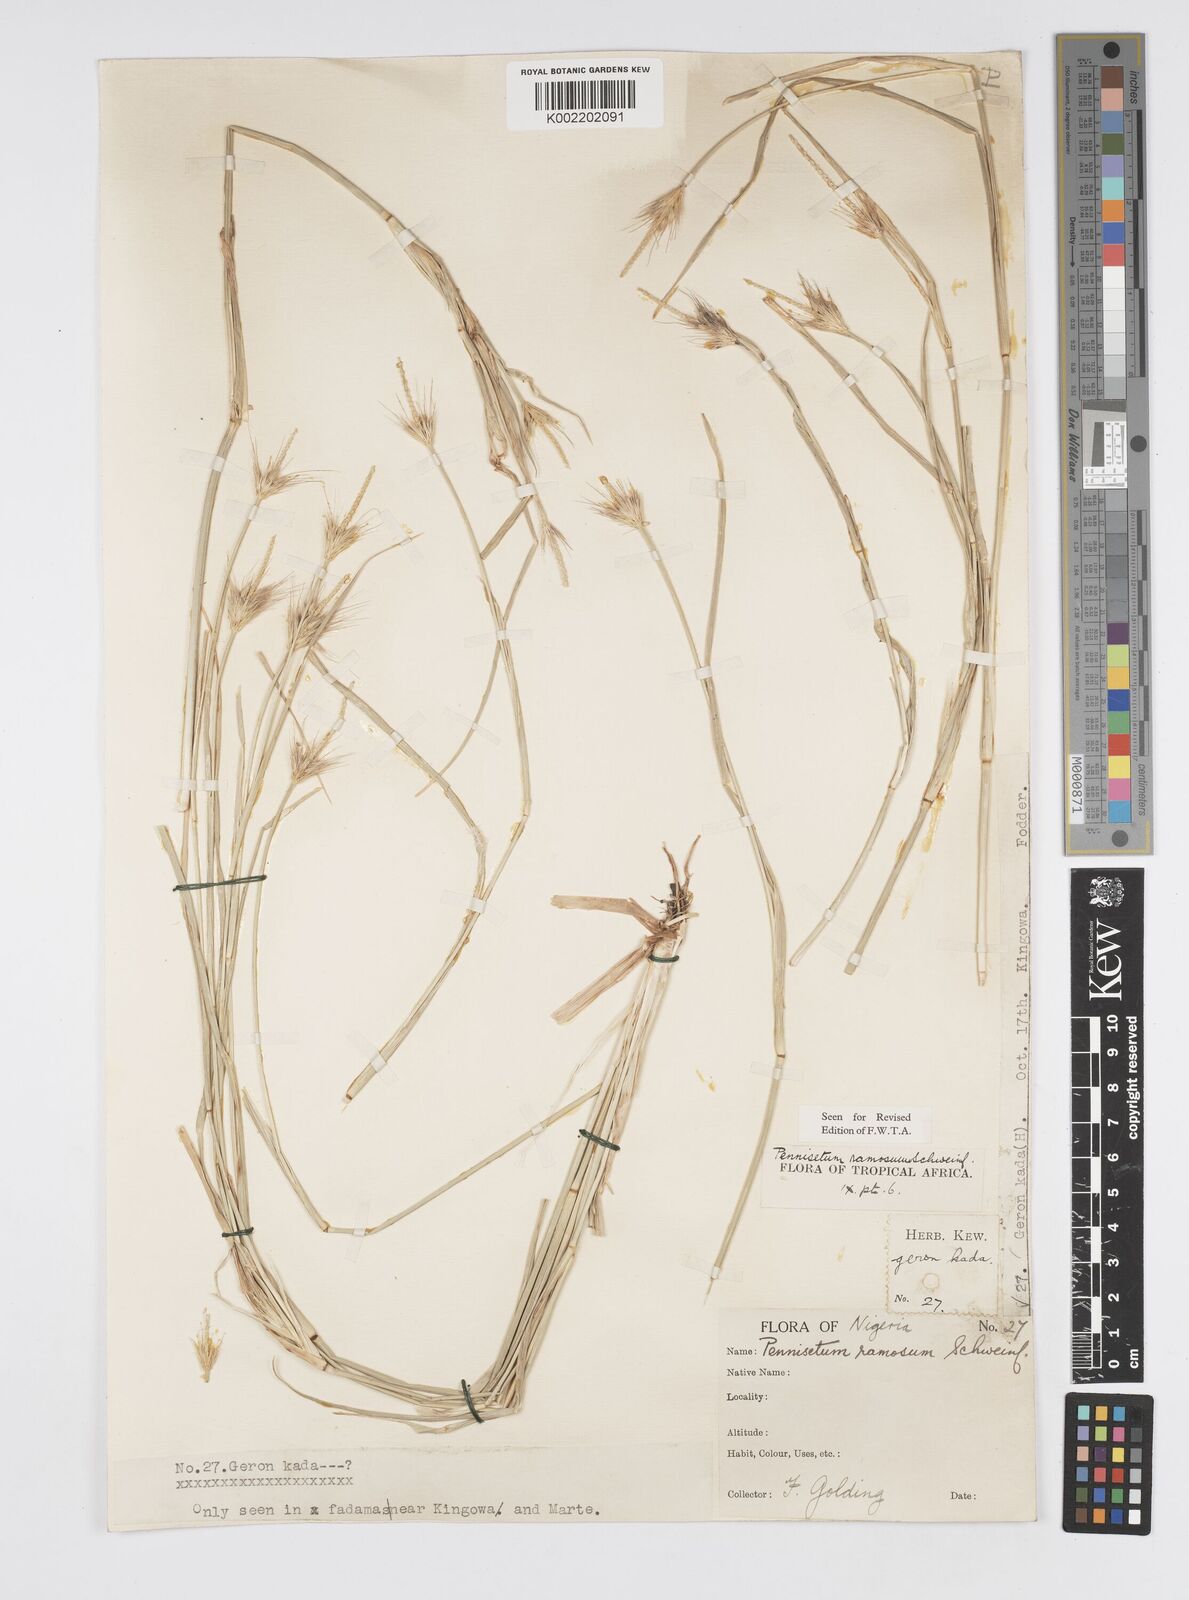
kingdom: Plantae
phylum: Tracheophyta
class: Liliopsida
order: Poales
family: Poaceae
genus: Cenchrus
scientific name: Cenchrus ramosus
